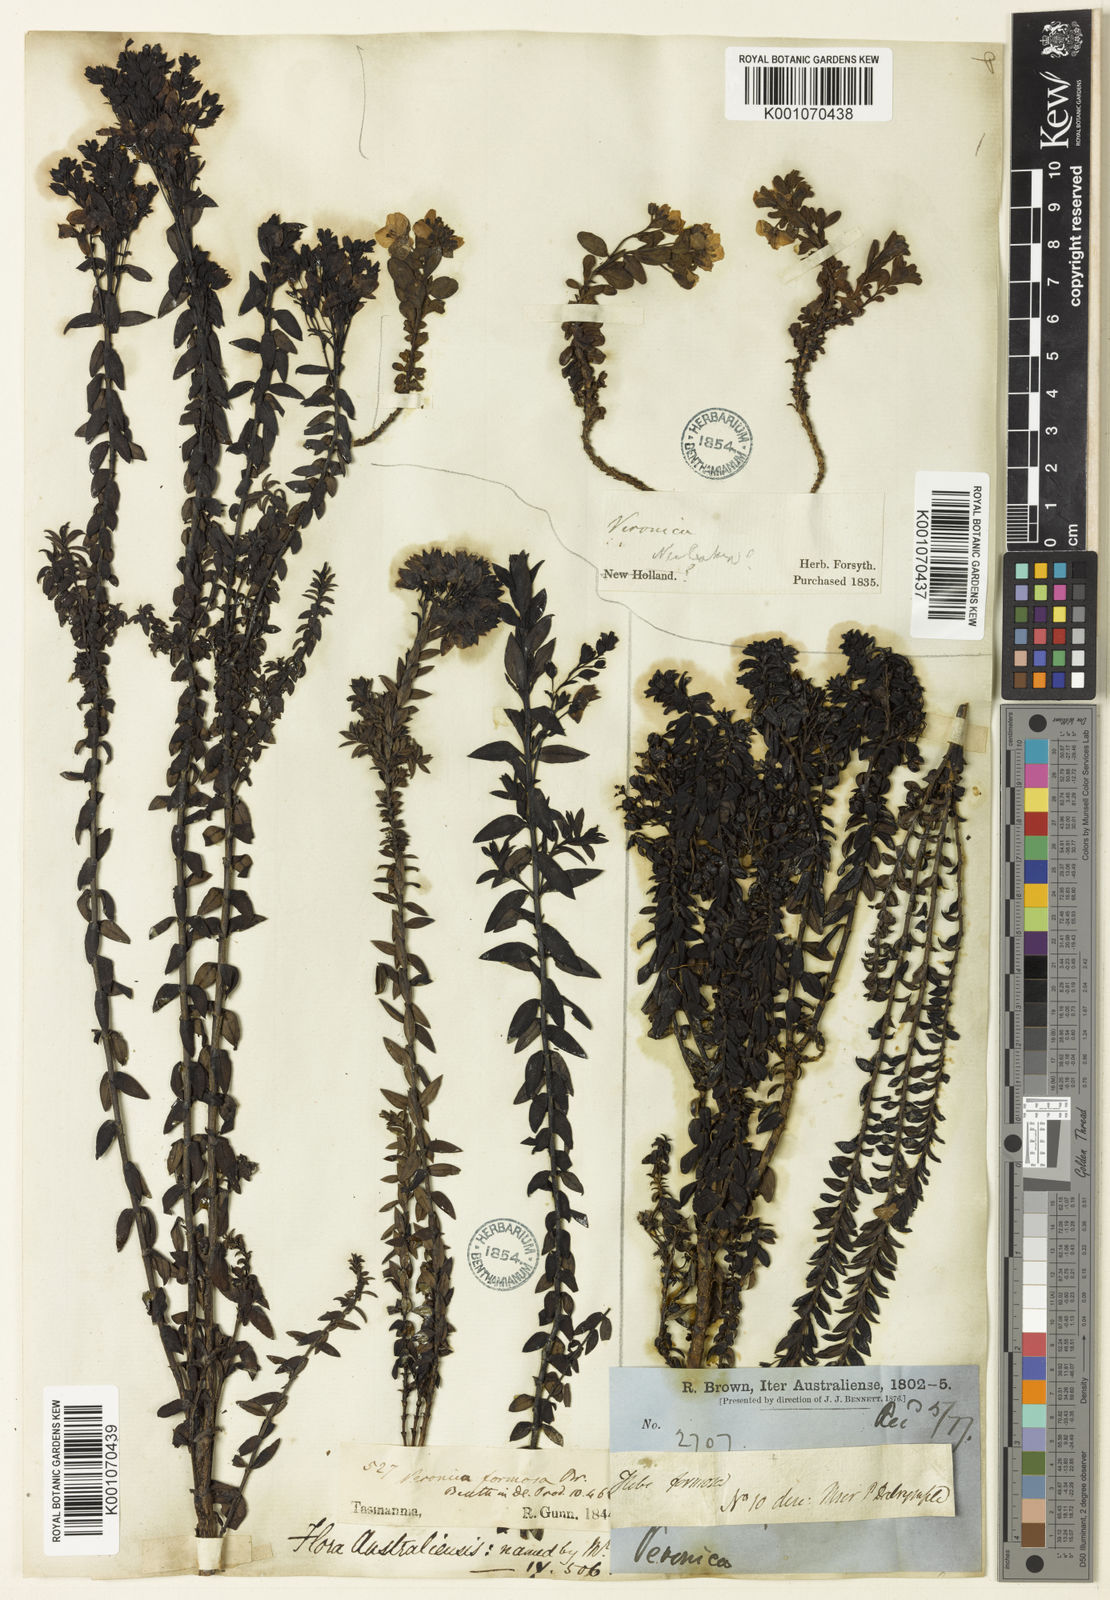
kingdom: Plantae
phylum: Tracheophyta
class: Magnoliopsida
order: Lamiales
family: Plantaginaceae
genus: Veronica
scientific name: Veronica formosa
